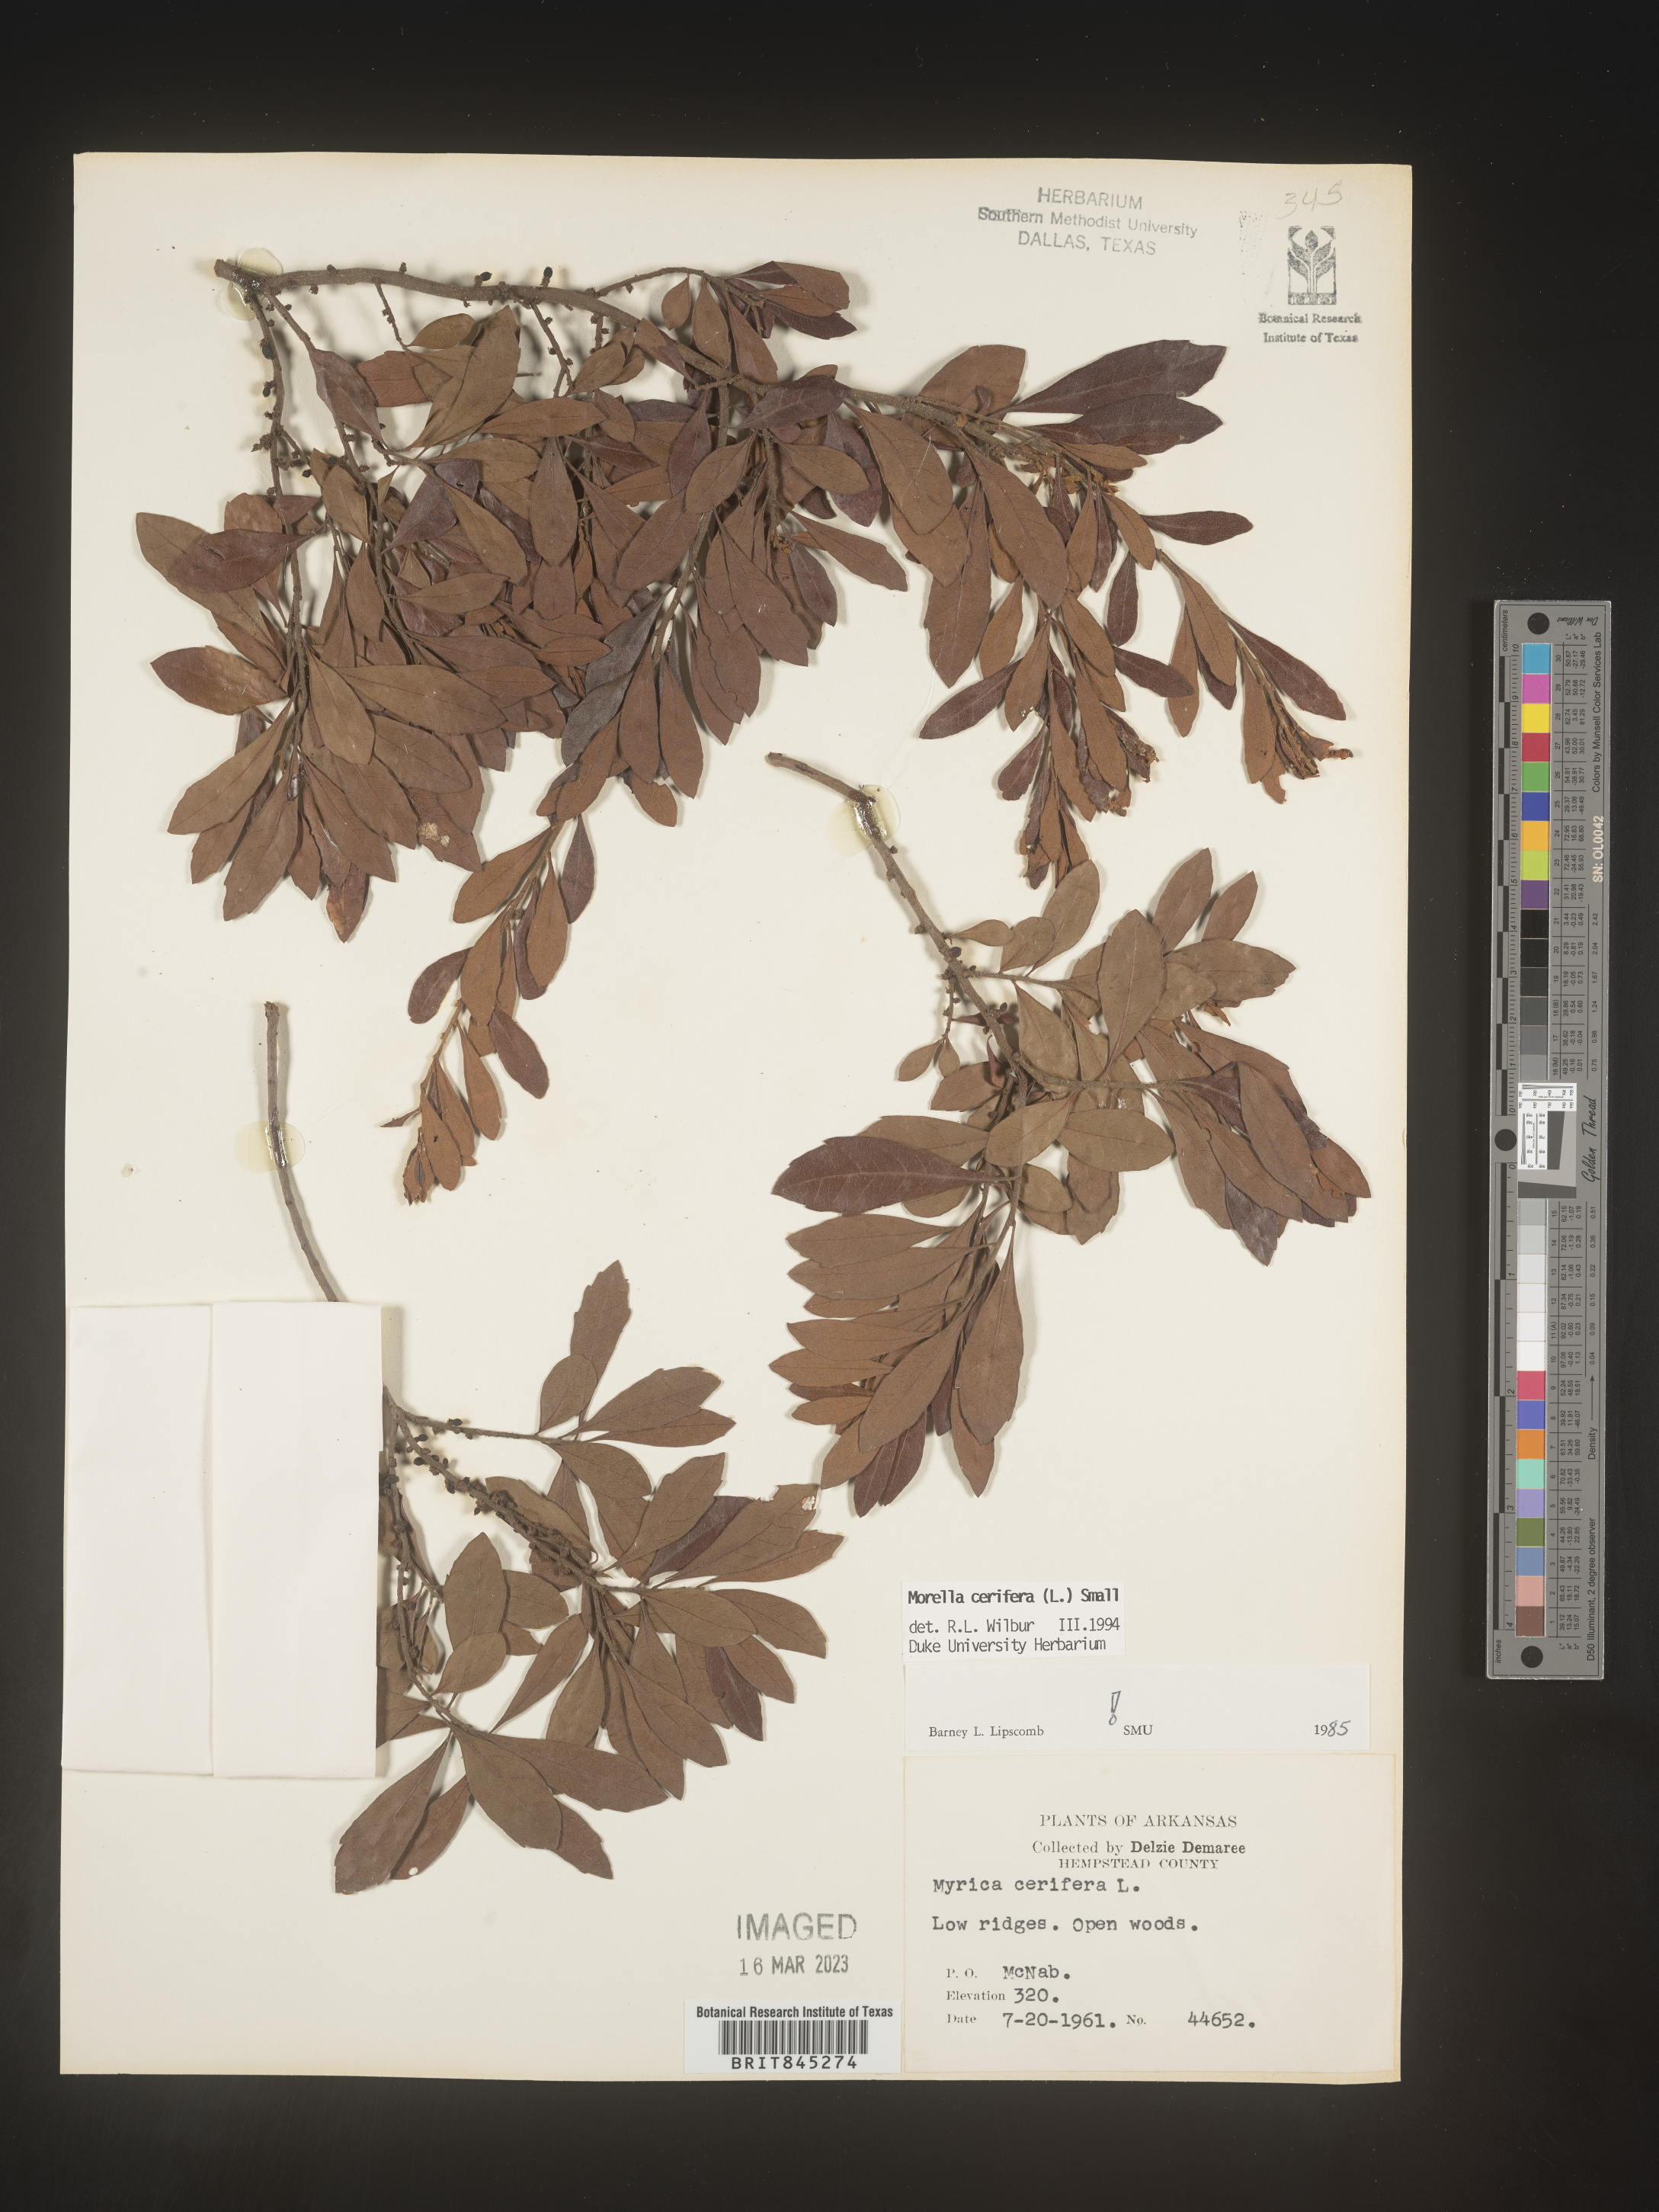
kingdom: Plantae
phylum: Tracheophyta
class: Magnoliopsida
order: Fagales
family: Myricaceae
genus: Morella
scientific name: Morella cerifera
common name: Wax myrtle
